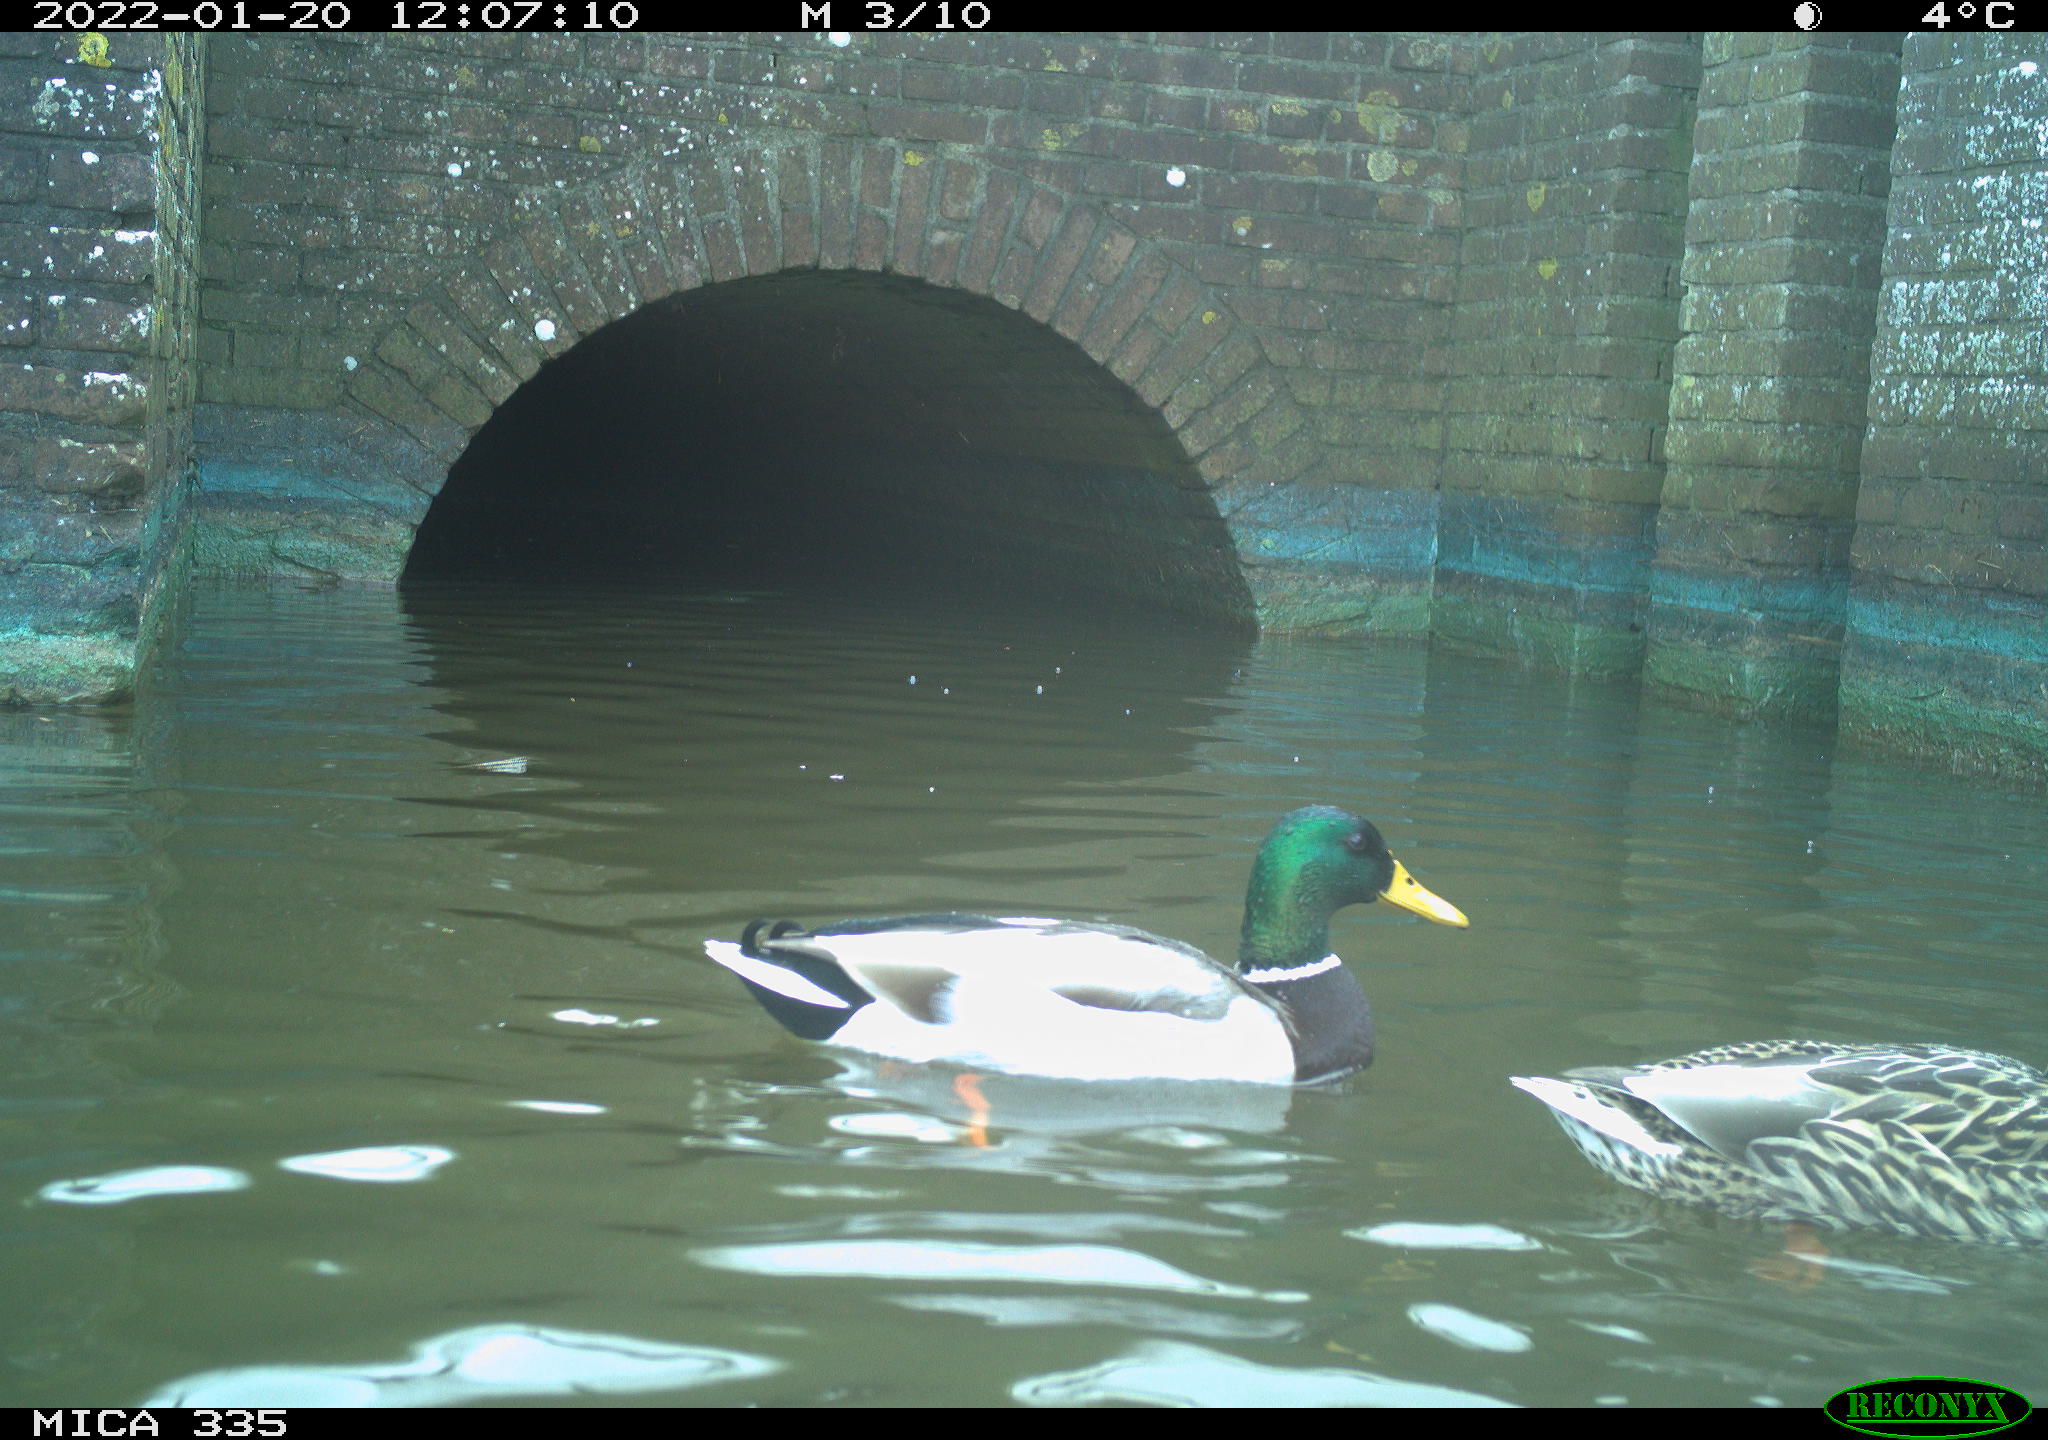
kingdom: Animalia
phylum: Chordata
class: Aves
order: Anseriformes
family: Anatidae
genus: Anas
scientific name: Anas platyrhynchos
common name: Mallard
